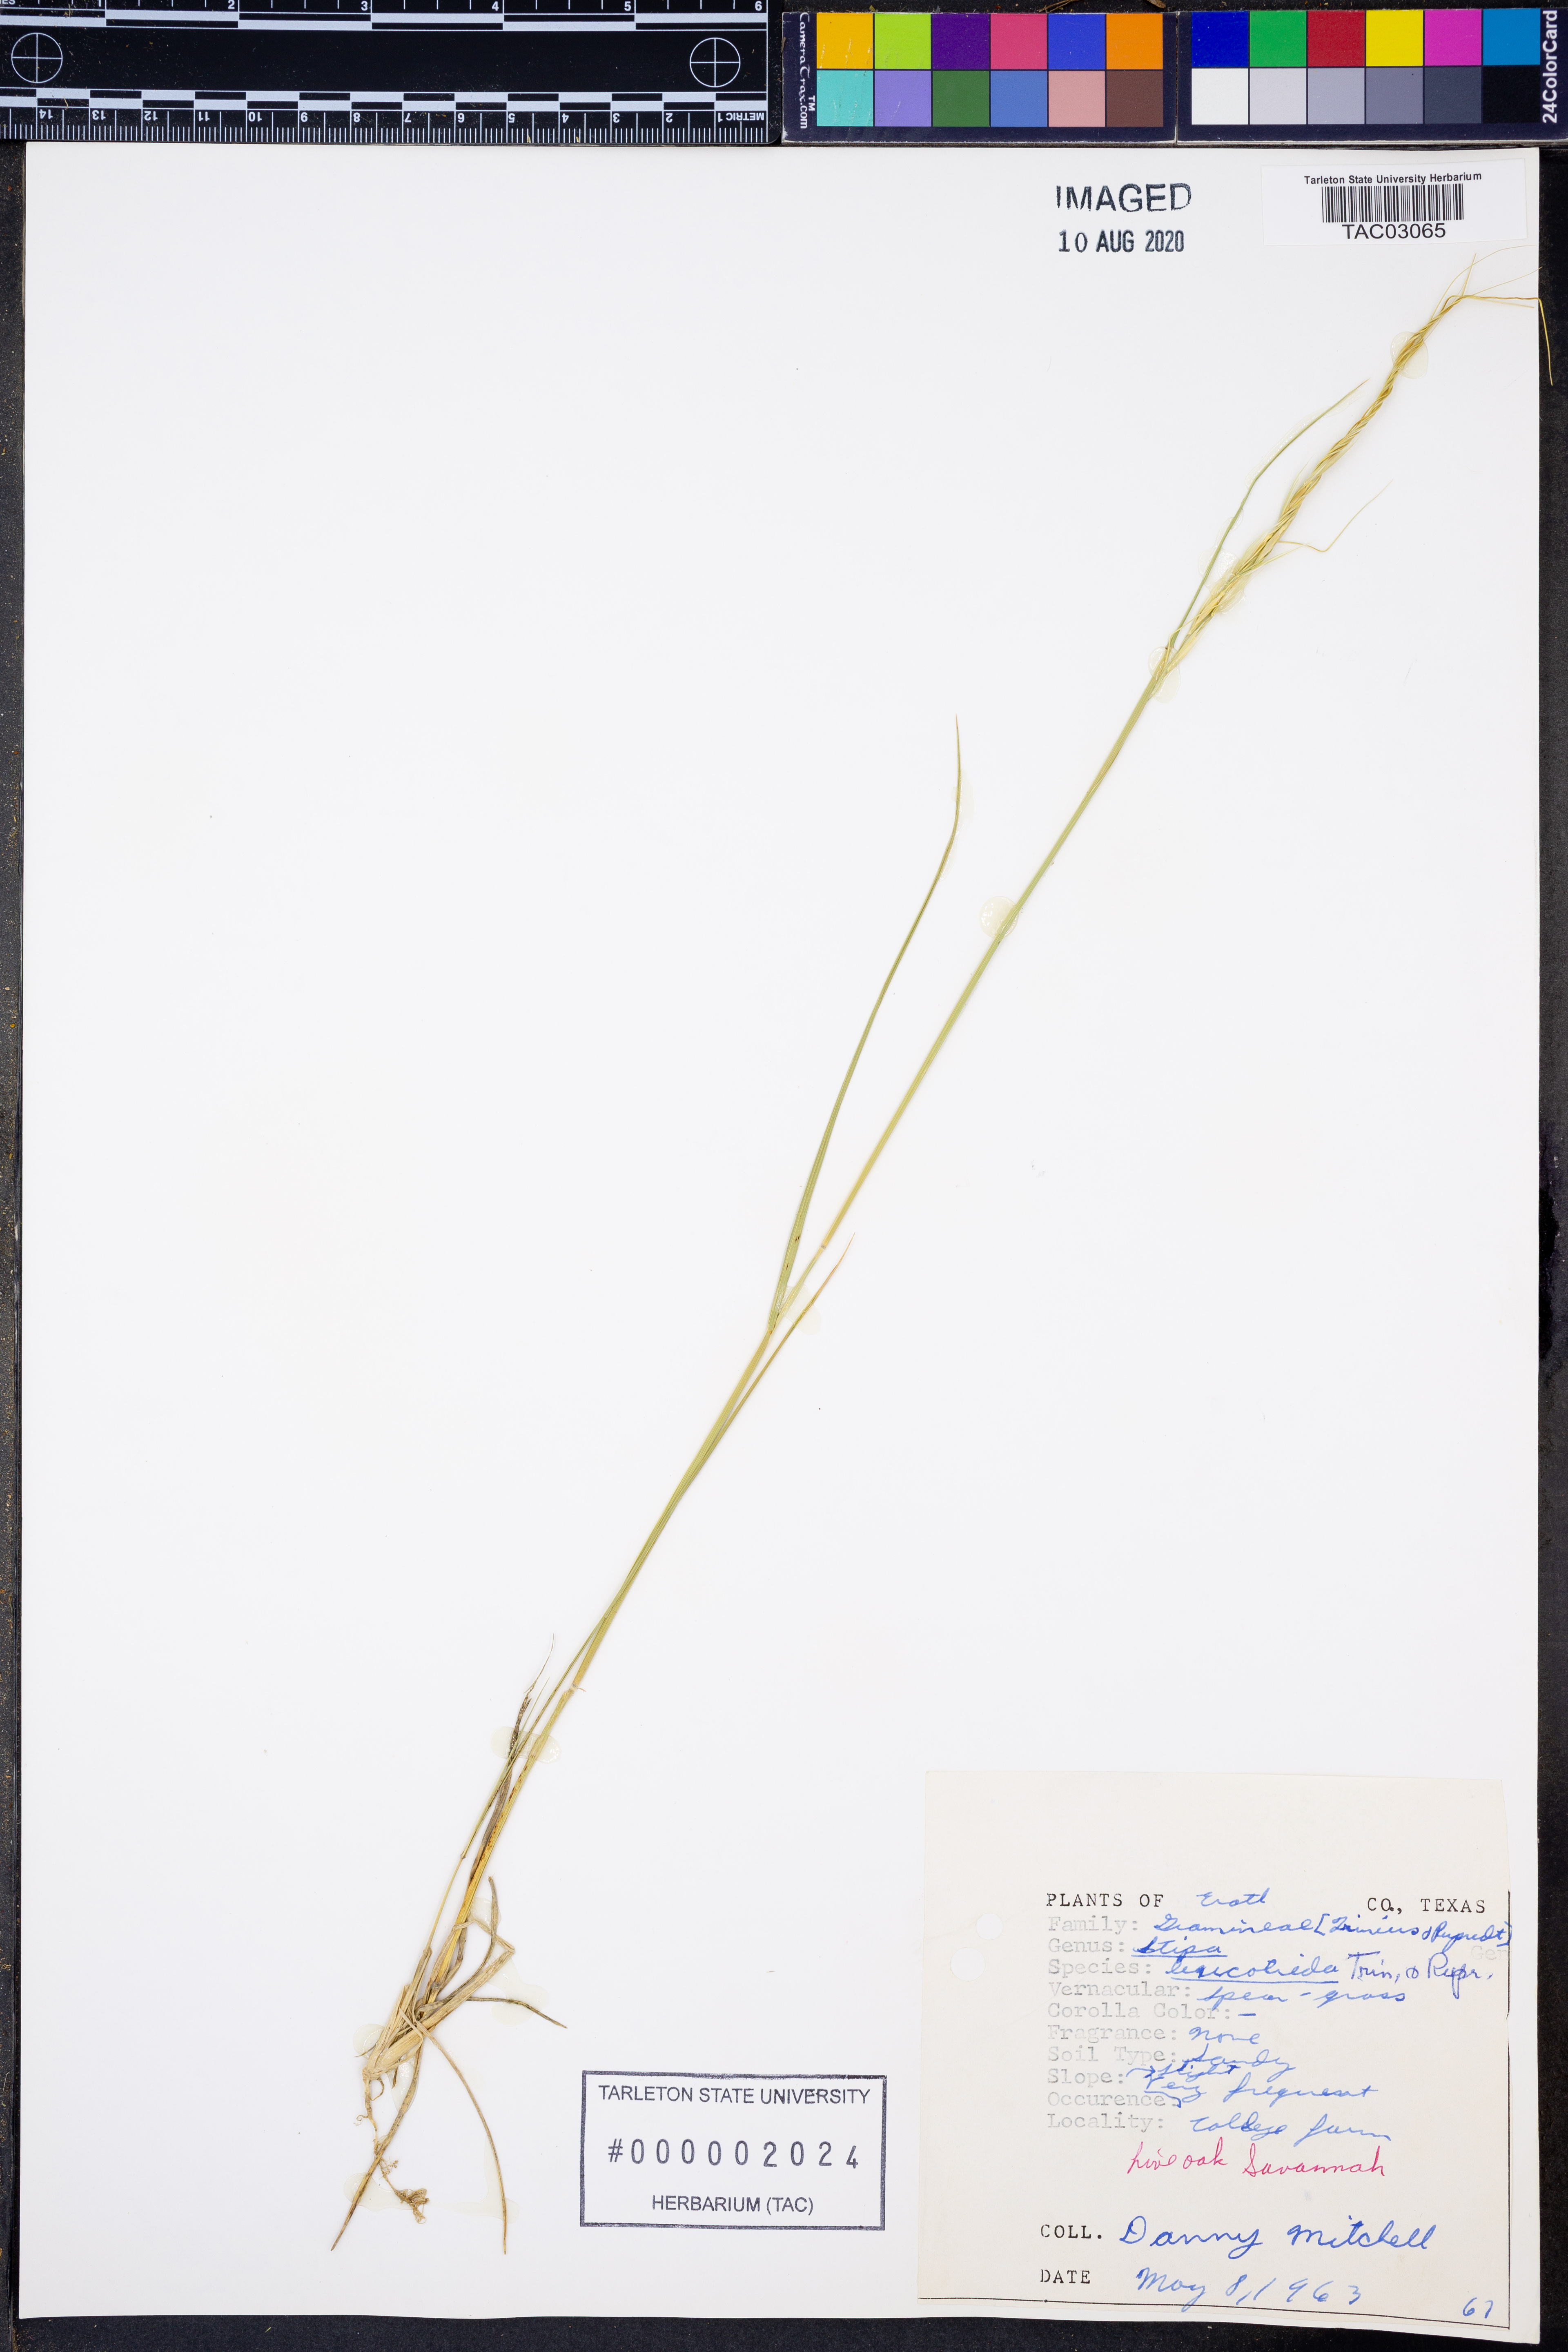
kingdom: Plantae
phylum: Tracheophyta
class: Liliopsida
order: Poales
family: Poaceae
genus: Nassella
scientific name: Nassella leucotricha
